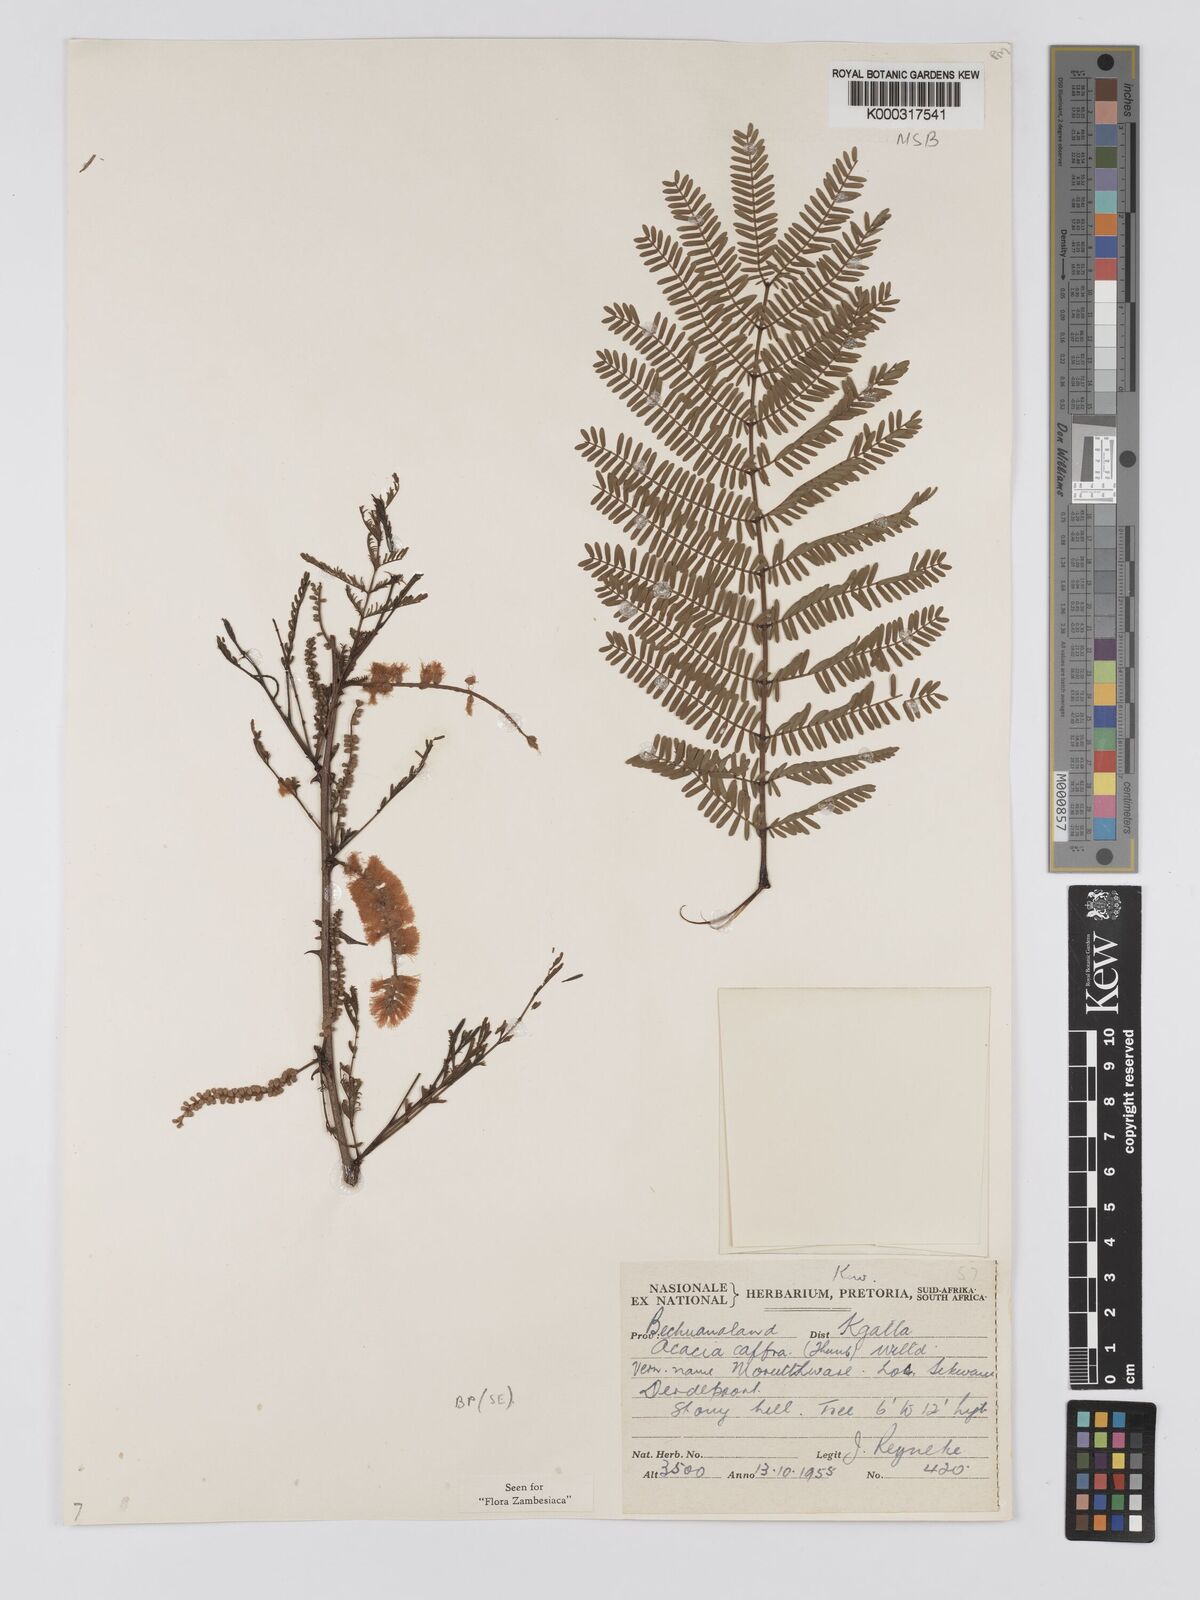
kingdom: Plantae
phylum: Tracheophyta
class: Magnoliopsida
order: Fabales
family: Fabaceae
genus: Senegalia
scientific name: Senegalia caffra
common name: Cat thorn
